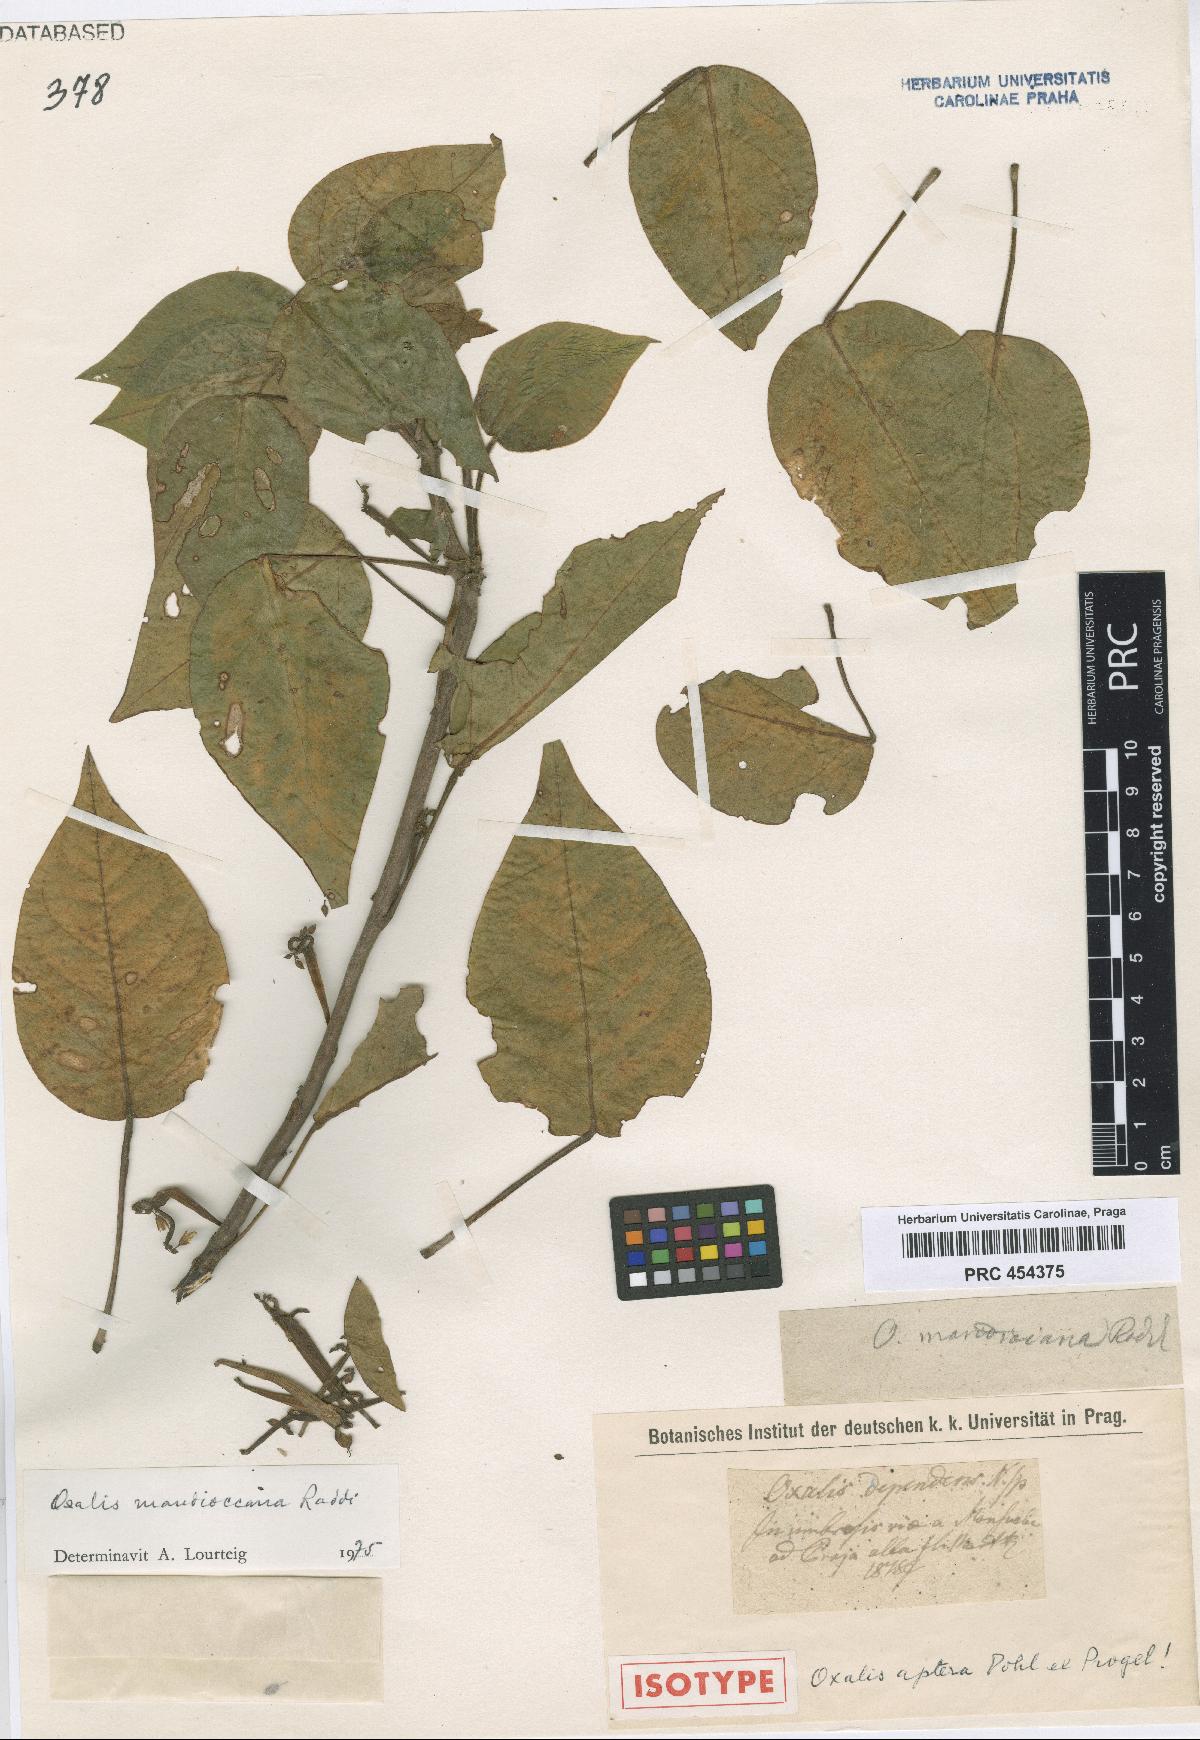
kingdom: Plantae
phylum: Tracheophyta
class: Magnoliopsida
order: Oxalidales
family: Oxalidaceae
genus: Oxalis
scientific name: Oxalis mandioccana
